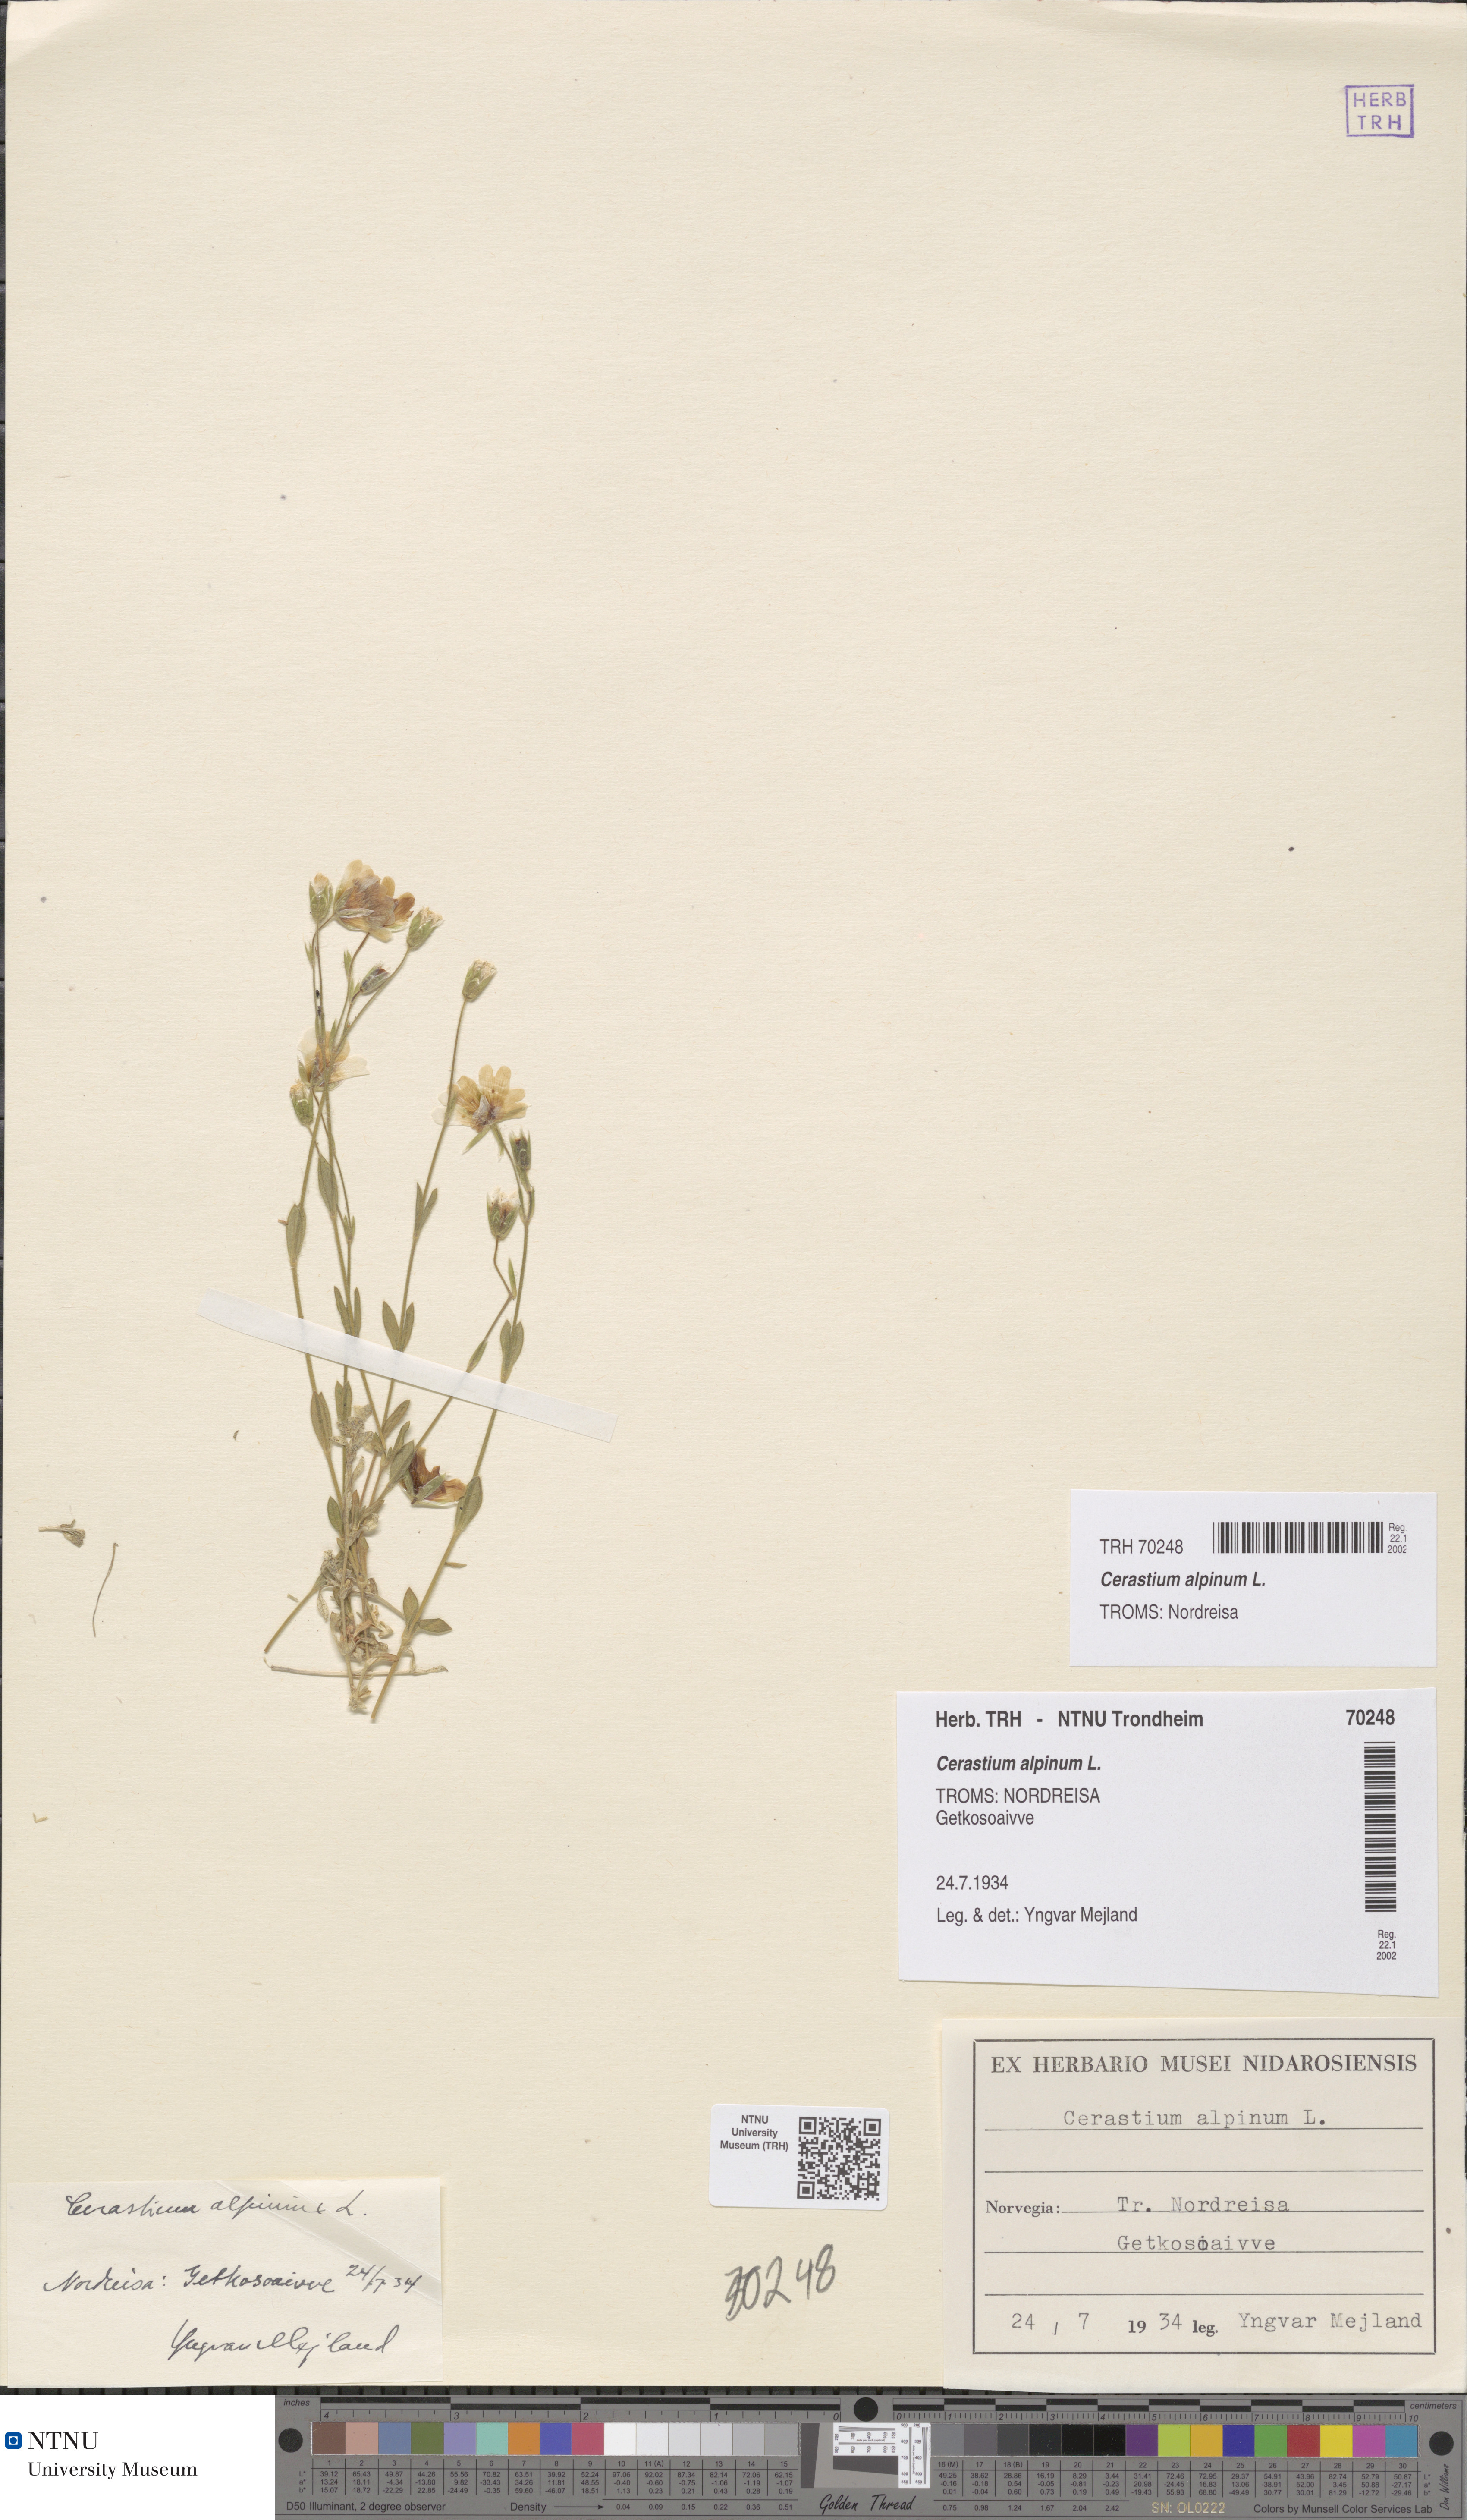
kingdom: Plantae
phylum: Tracheophyta
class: Magnoliopsida
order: Caryophyllales
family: Caryophyllaceae
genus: Cerastium
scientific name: Cerastium alpinum
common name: Alpine mouse-ear
